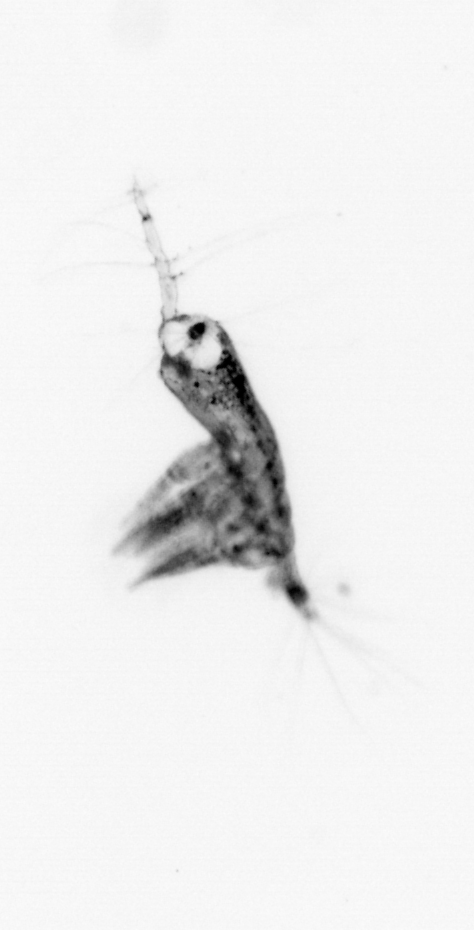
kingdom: Animalia
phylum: Arthropoda
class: Copepoda
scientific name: Copepoda
